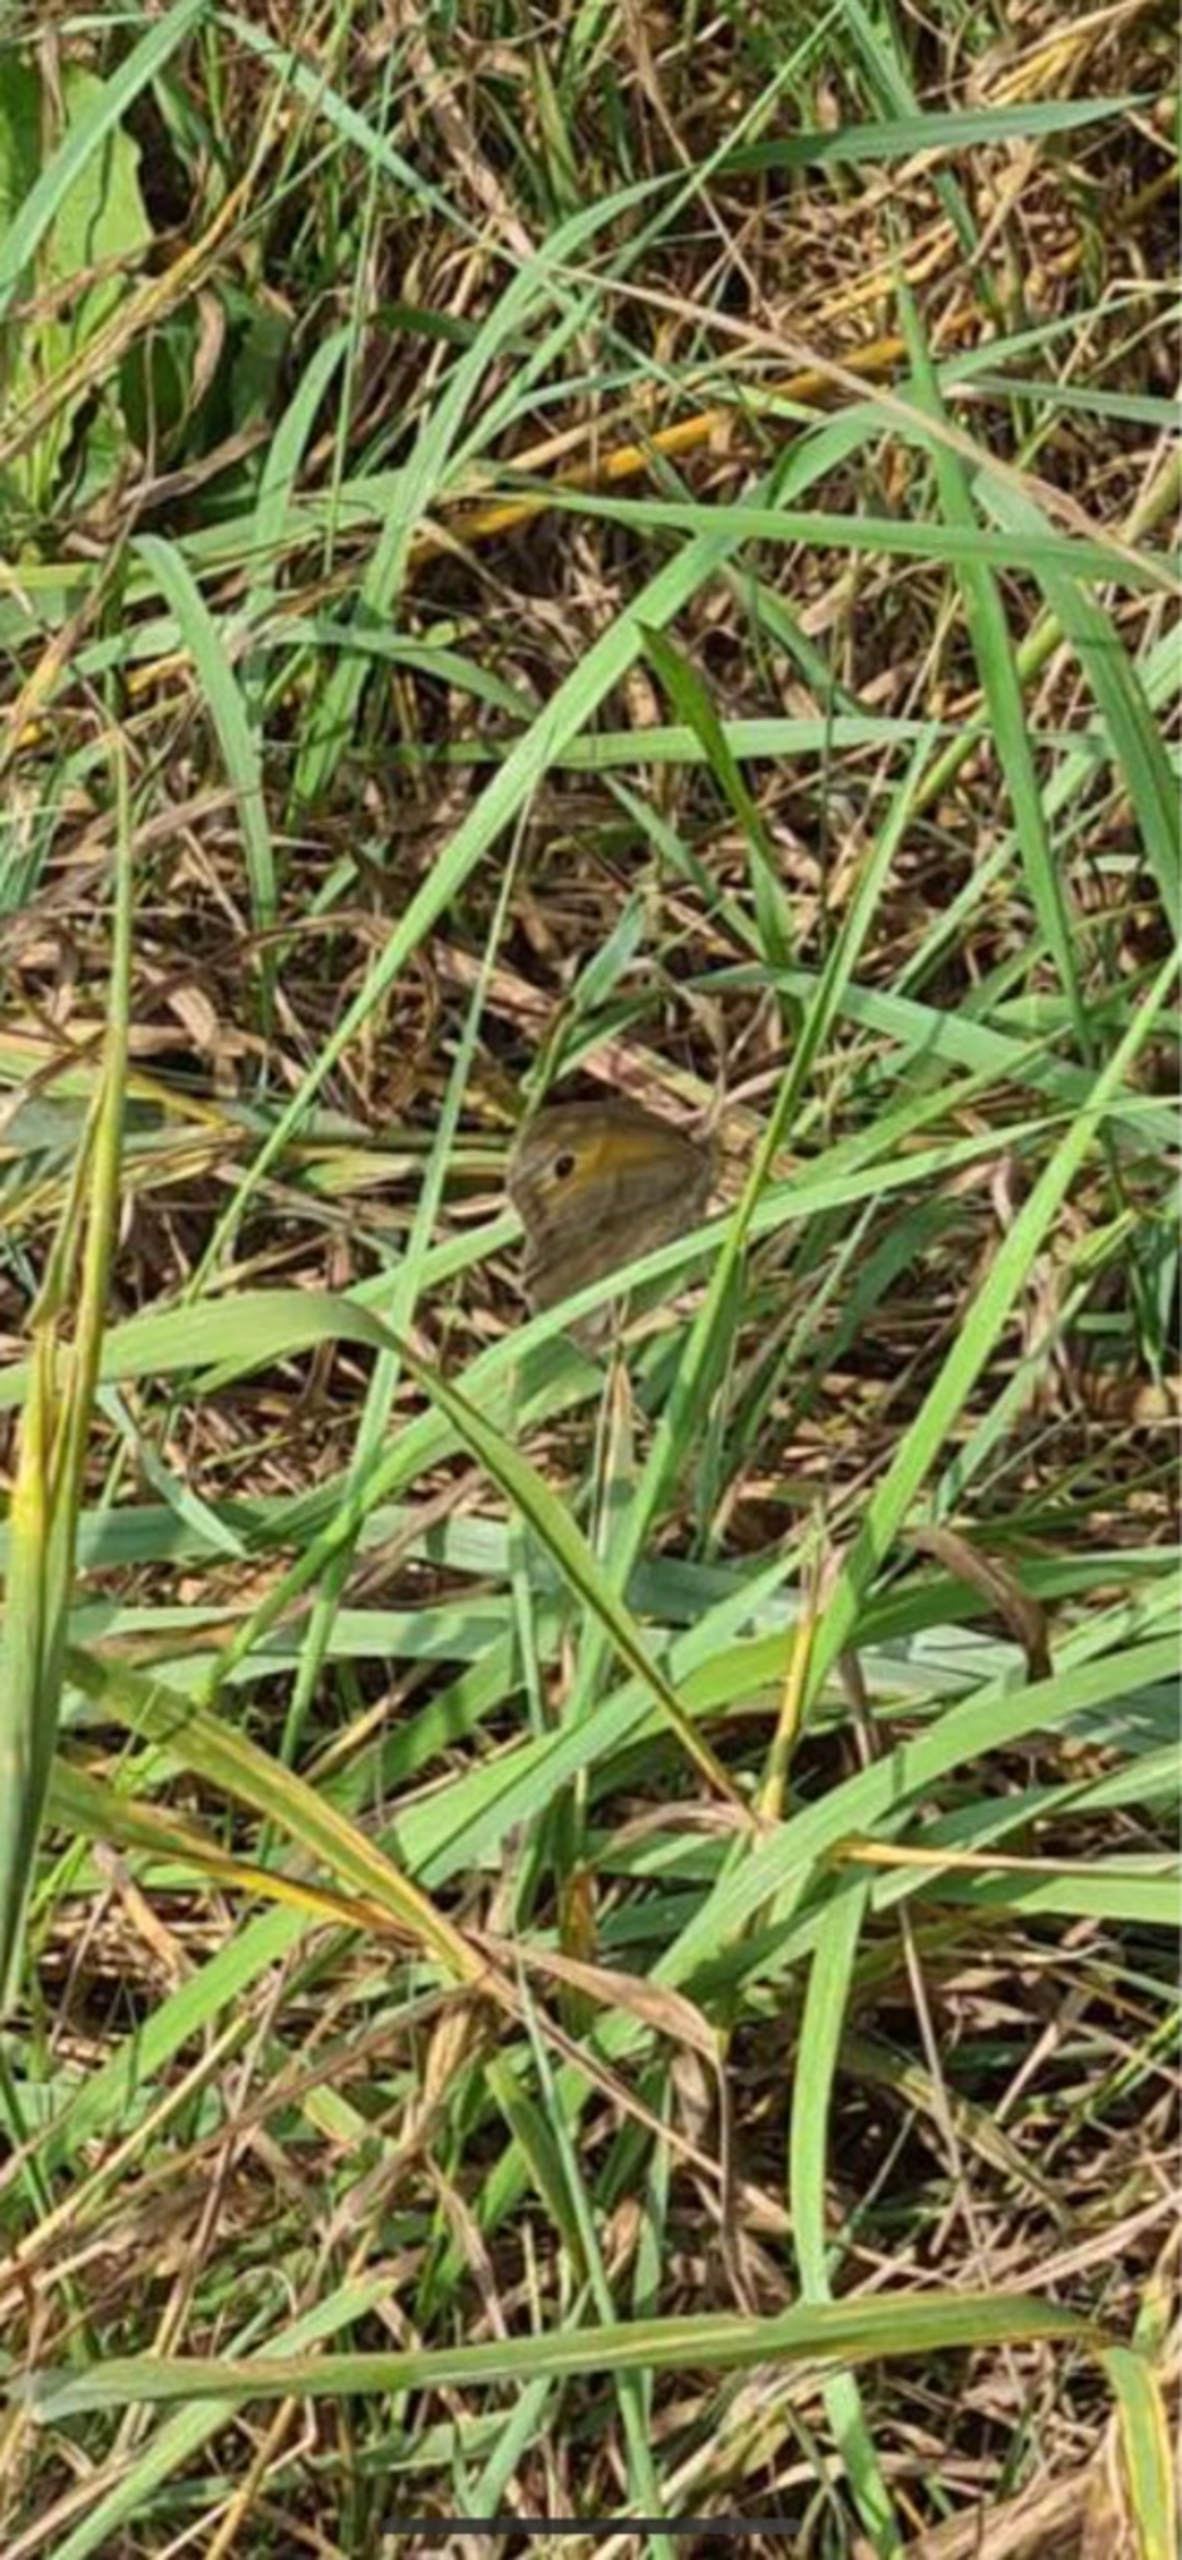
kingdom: Animalia
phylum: Arthropoda
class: Insecta
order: Lepidoptera
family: Nymphalidae
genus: Maniola
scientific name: Maniola jurtina
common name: Græsrandøje
